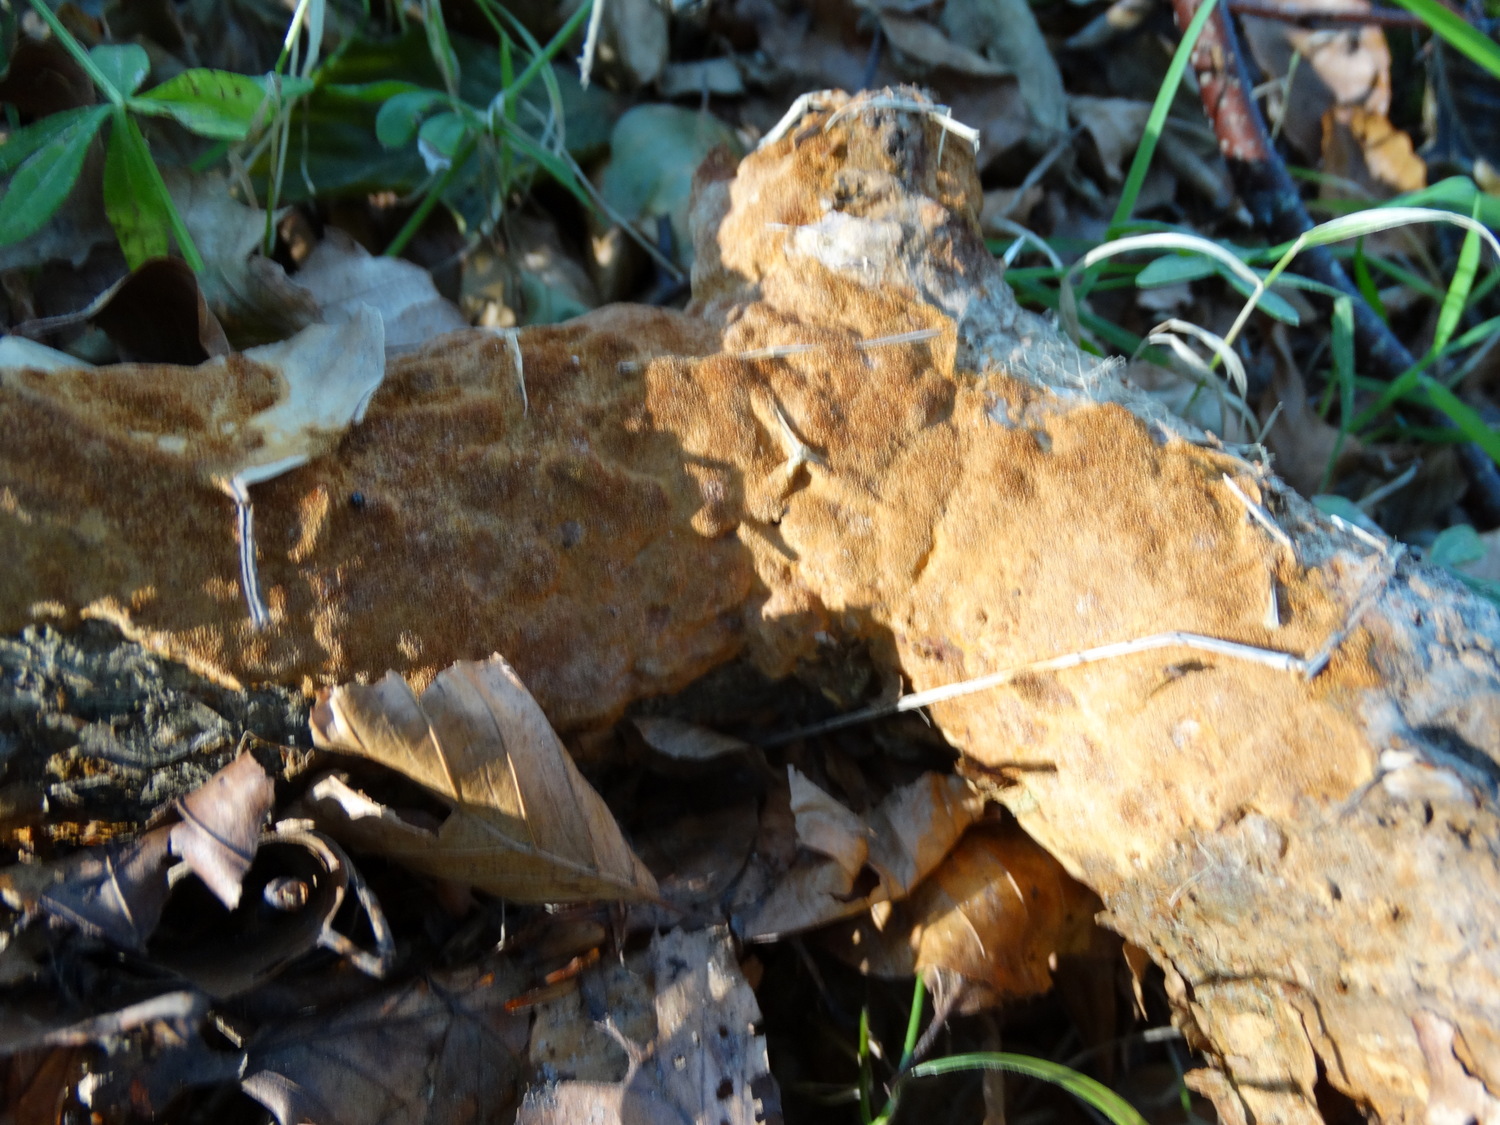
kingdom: Fungi
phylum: Basidiomycota
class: Agaricomycetes
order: Hymenochaetales
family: Hymenochaetaceae
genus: Fuscoporia
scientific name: Fuscoporia ferrea
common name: skorpe-ildporesvamp
